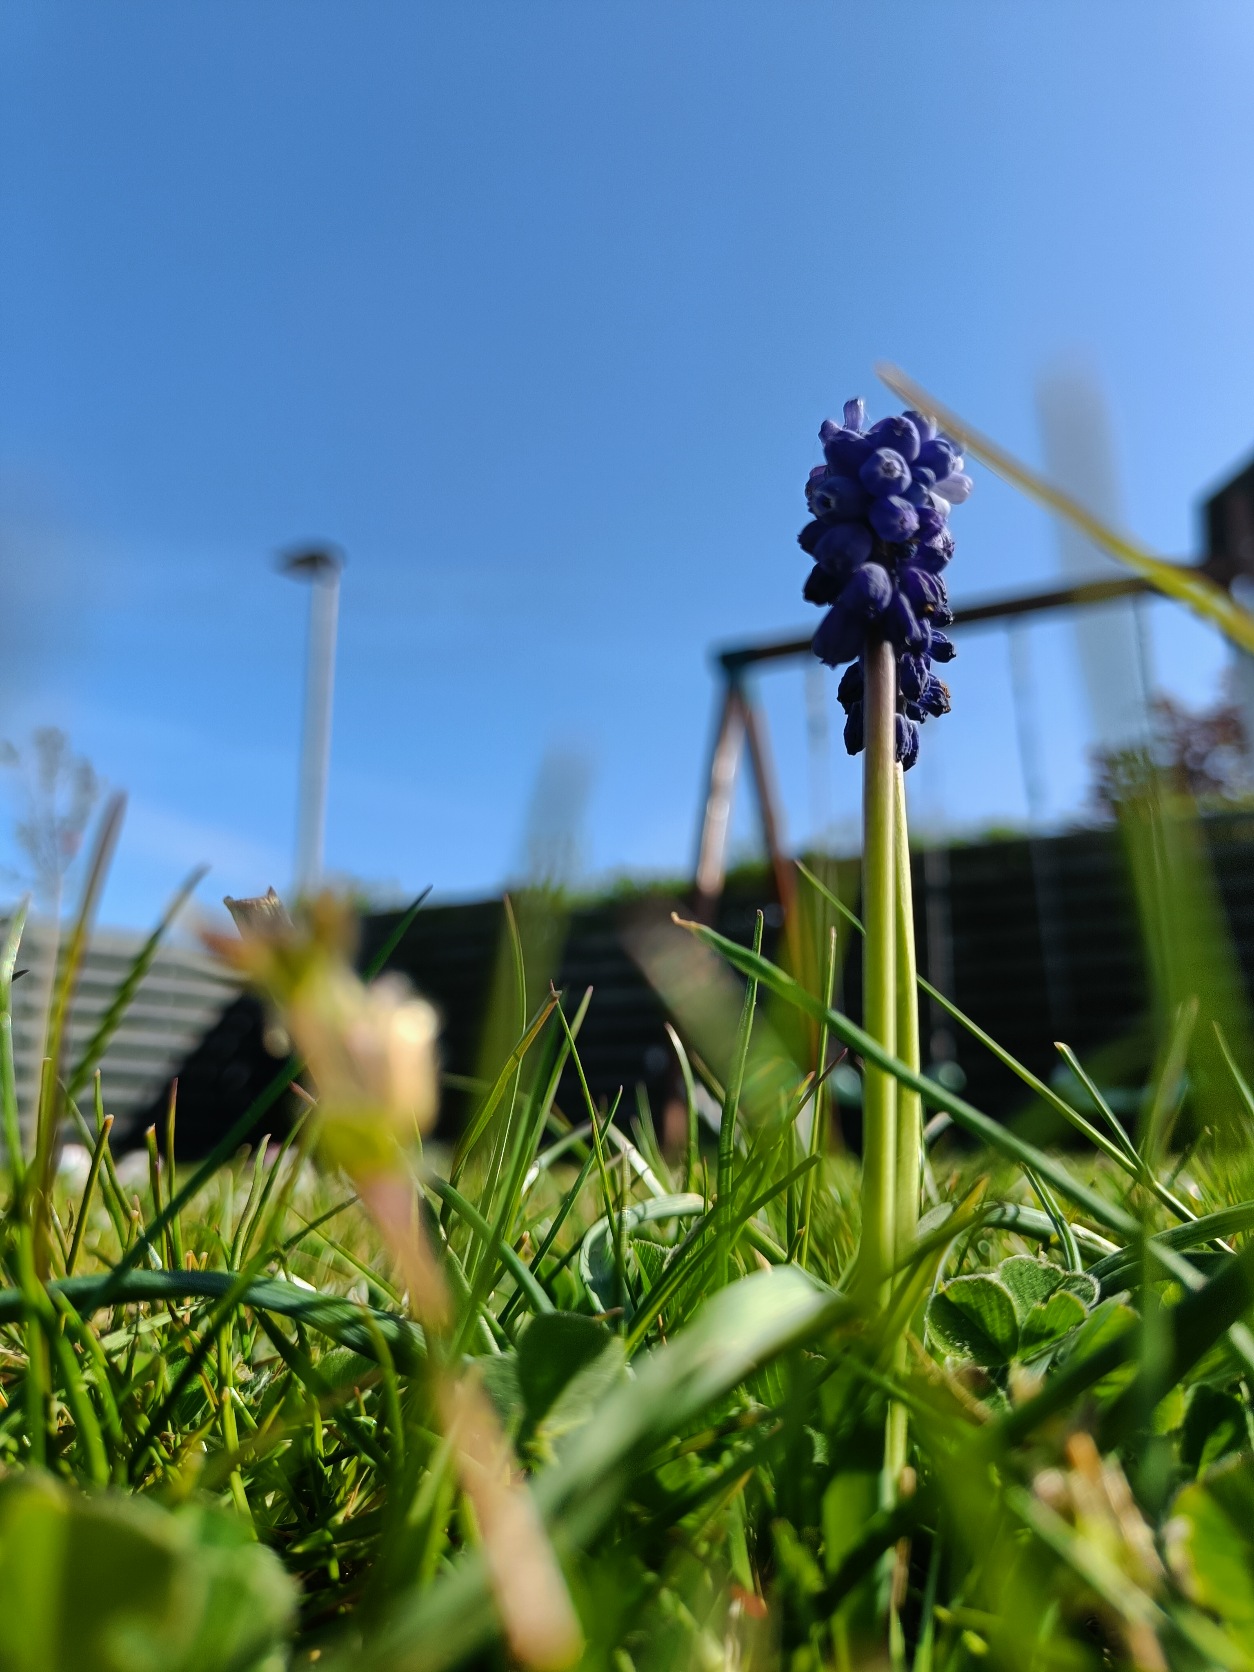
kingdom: Plantae
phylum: Tracheophyta
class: Liliopsida
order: Asparagales
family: Asparagaceae
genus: Muscari
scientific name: Muscari armeniacum
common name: Armensk perlehyacint
